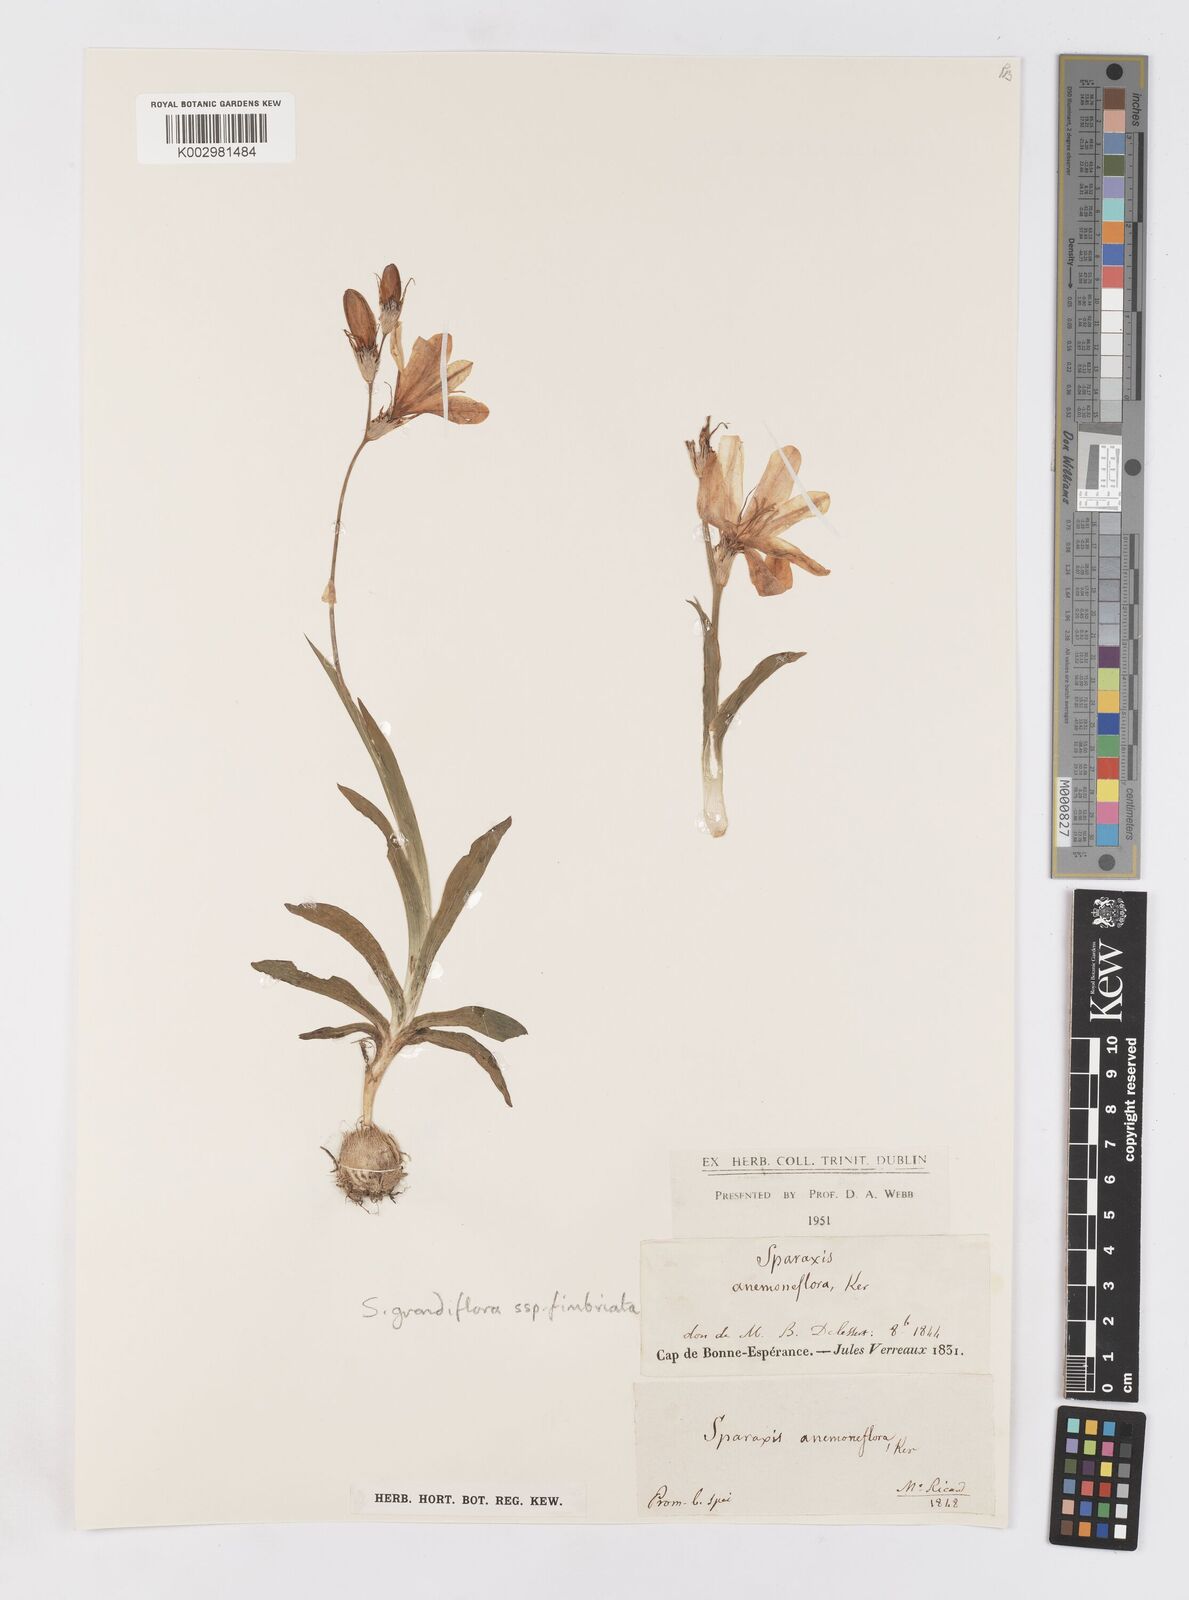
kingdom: Plantae
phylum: Tracheophyta
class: Liliopsida
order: Asparagales
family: Iridaceae
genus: Sparaxis
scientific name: Sparaxis grandiflora
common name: Plain harlequin-flower
